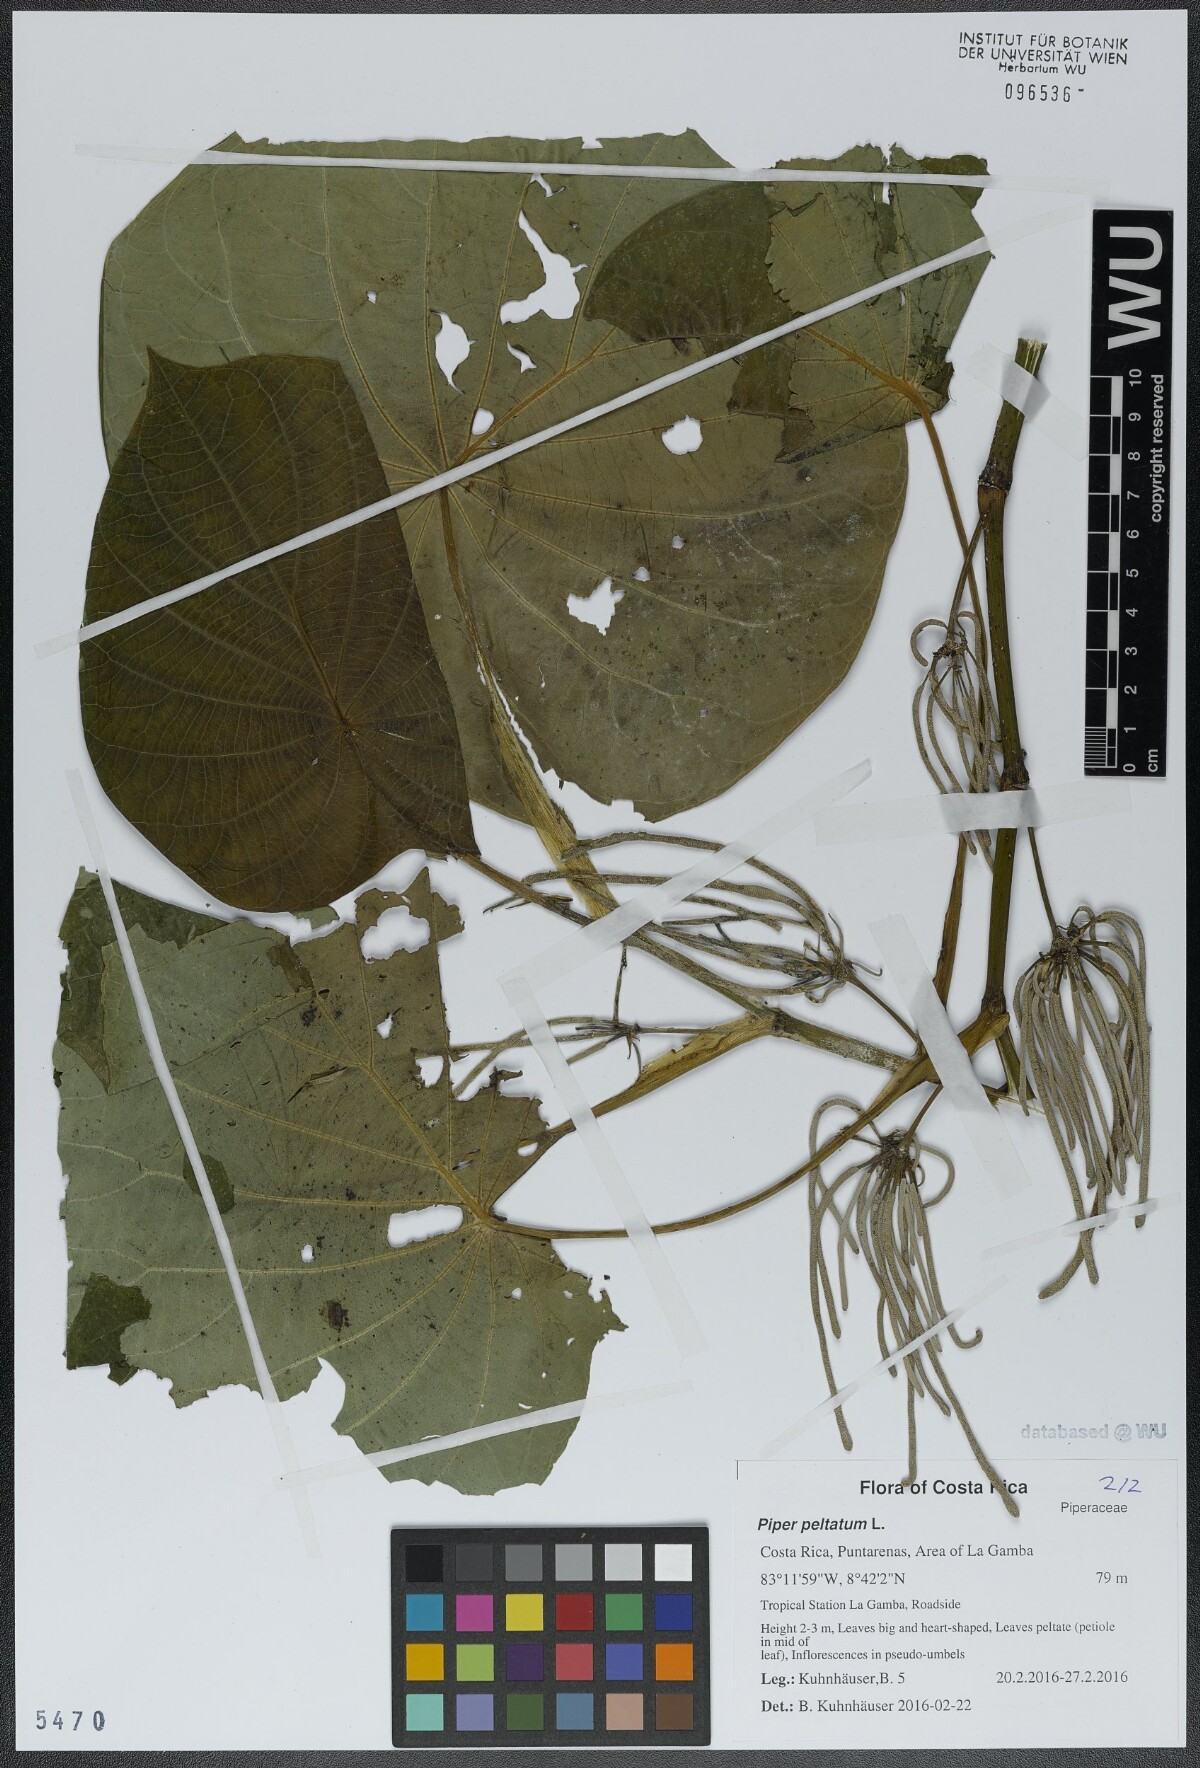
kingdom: Plantae
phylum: Tracheophyta
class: Magnoliopsida
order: Piperales
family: Piperaceae
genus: Piper
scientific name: Piper peltatum
